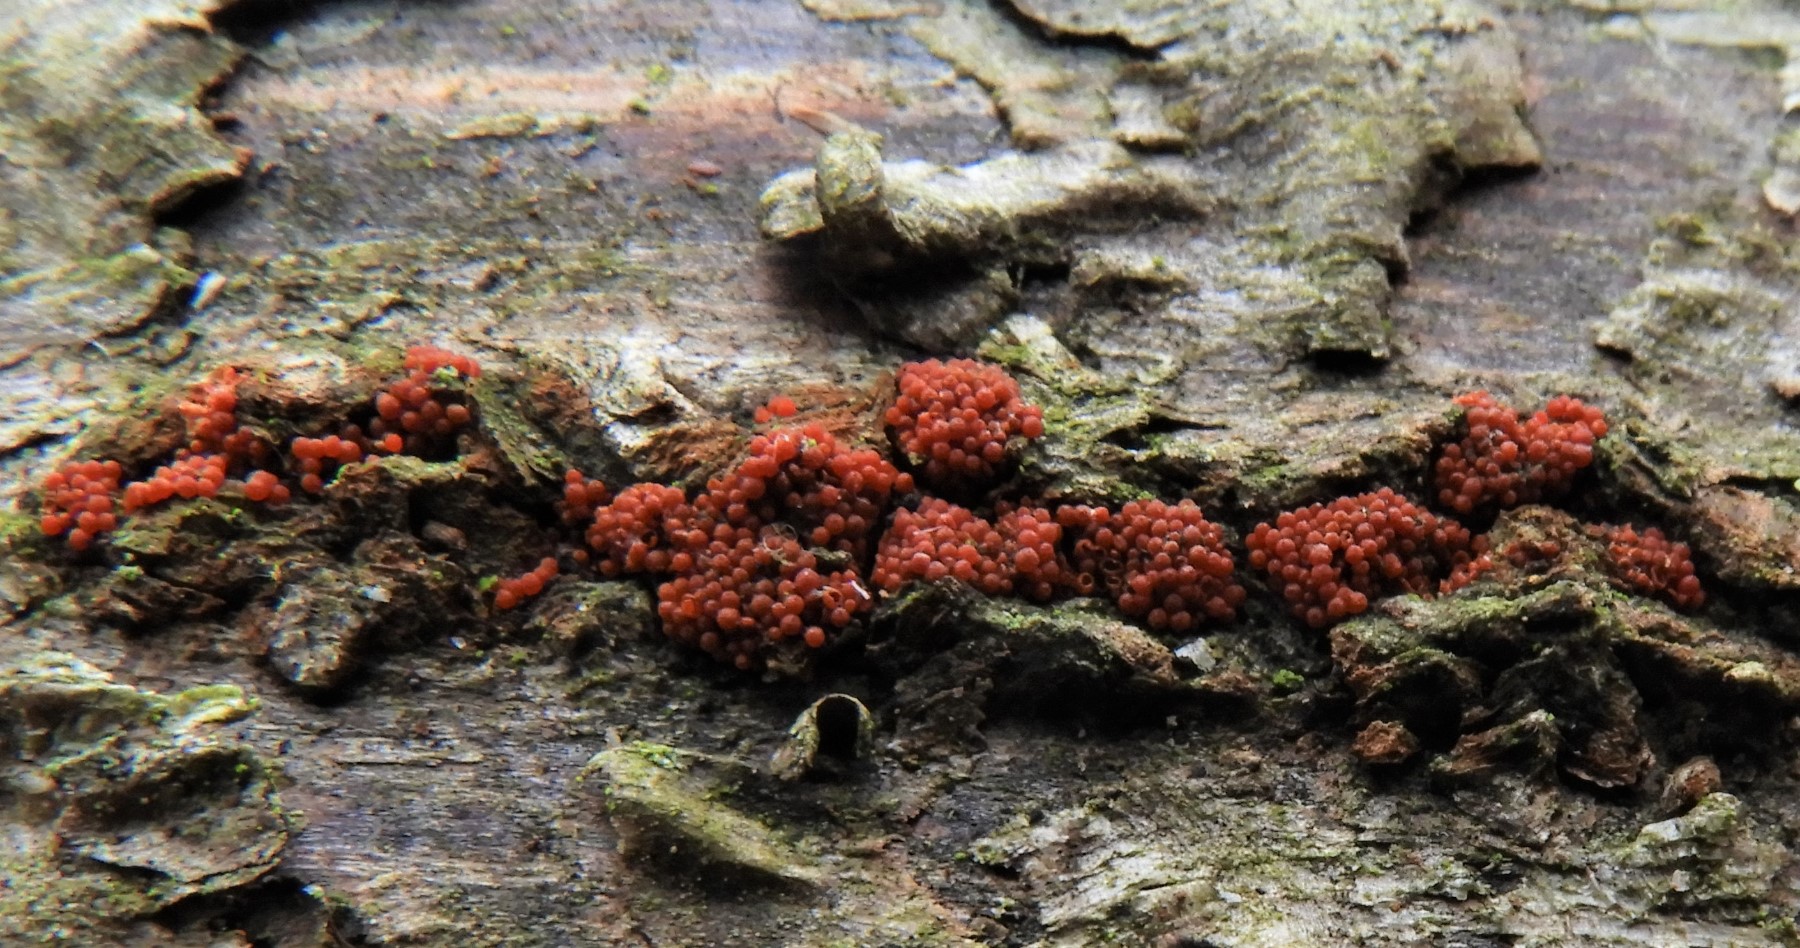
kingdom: Fungi
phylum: Ascomycota
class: Sordariomycetes
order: Hypocreales
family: Nectriaceae
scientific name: Nectriaceae
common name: cinnobersvampfamilien
